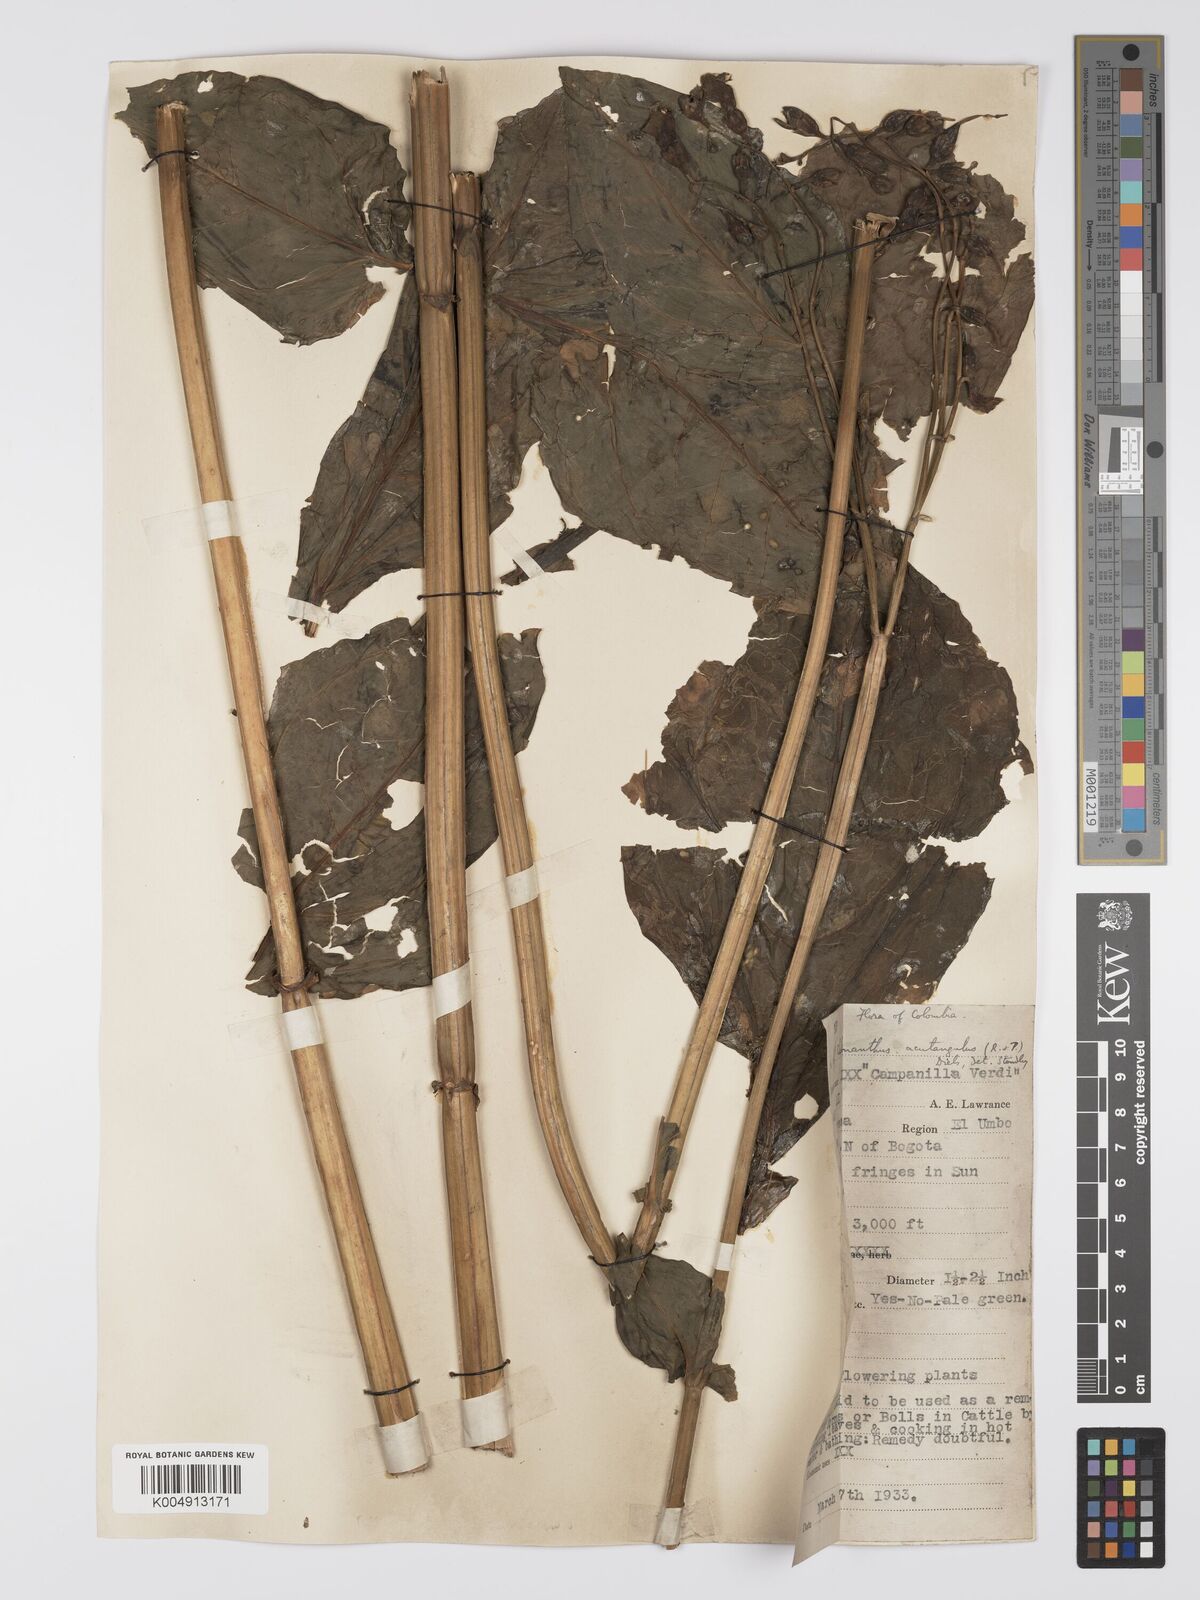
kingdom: Plantae
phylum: Tracheophyta
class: Magnoliopsida
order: Gentianales
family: Gentianaceae
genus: Chelonanthus
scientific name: Chelonanthus alatus
